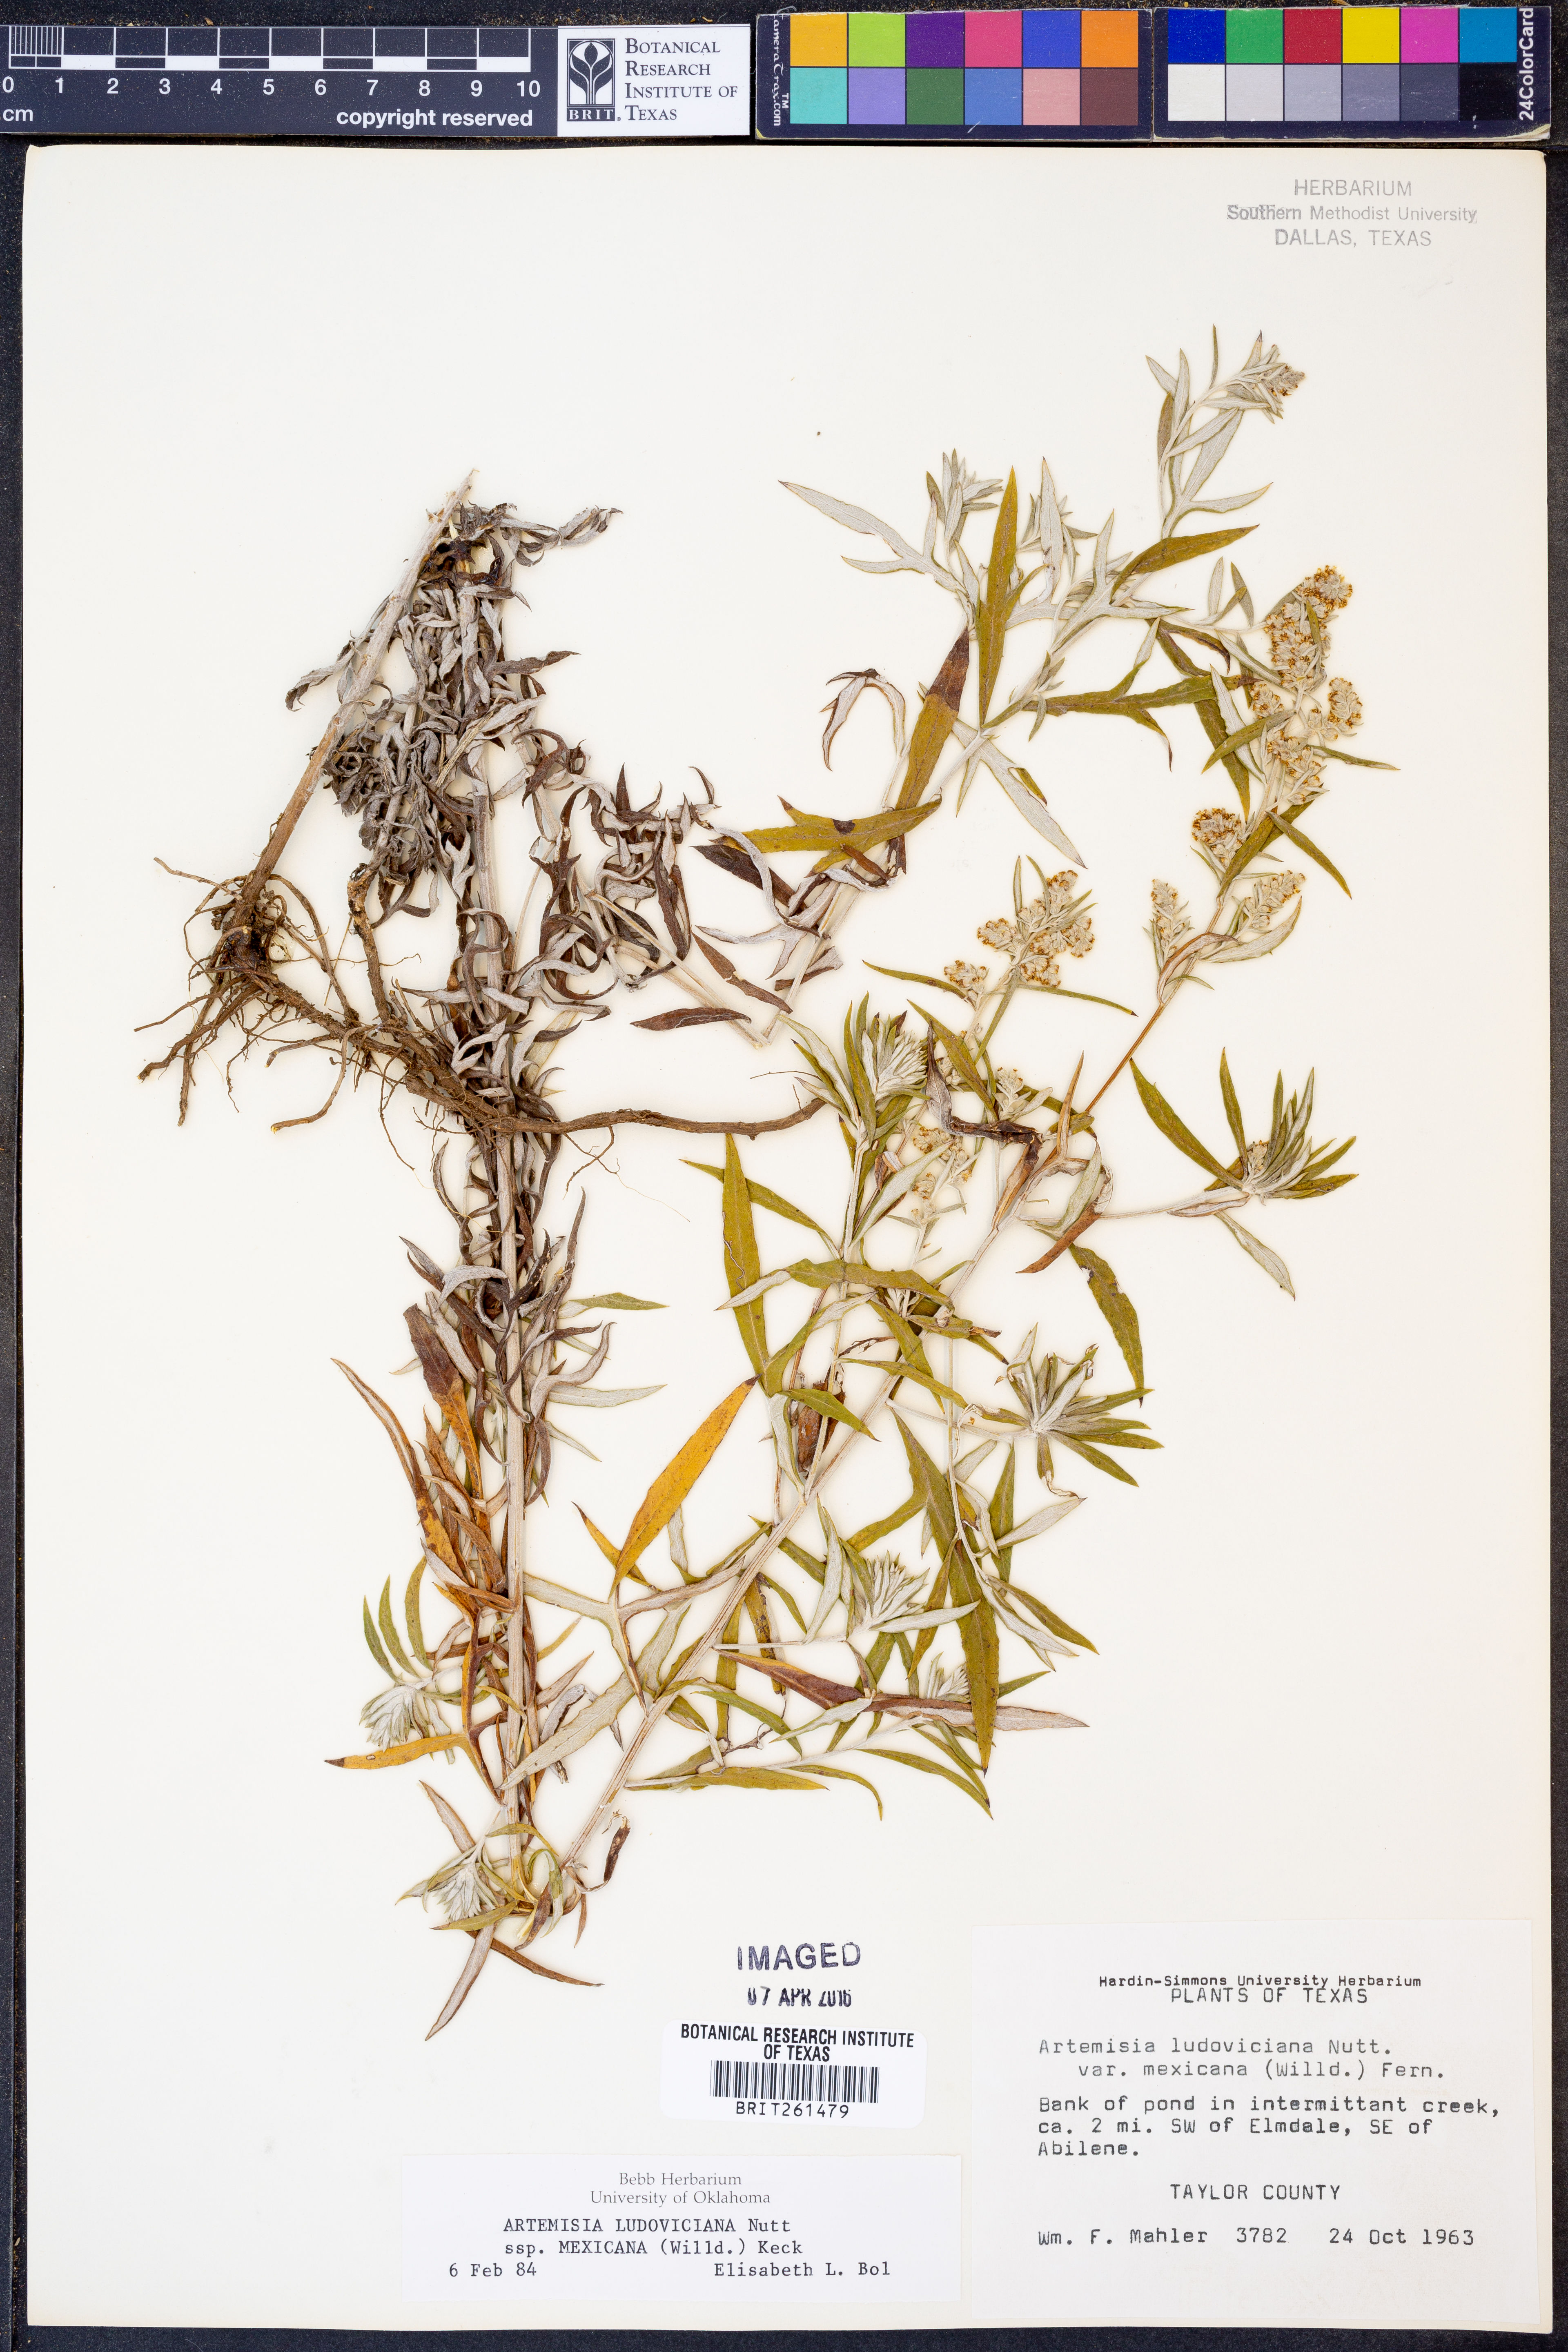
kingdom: Plantae
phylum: Tracheophyta
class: Magnoliopsida
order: Asterales
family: Asteraceae
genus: Artemisia
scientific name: Artemisia ludoviciana
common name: Western mugwort
